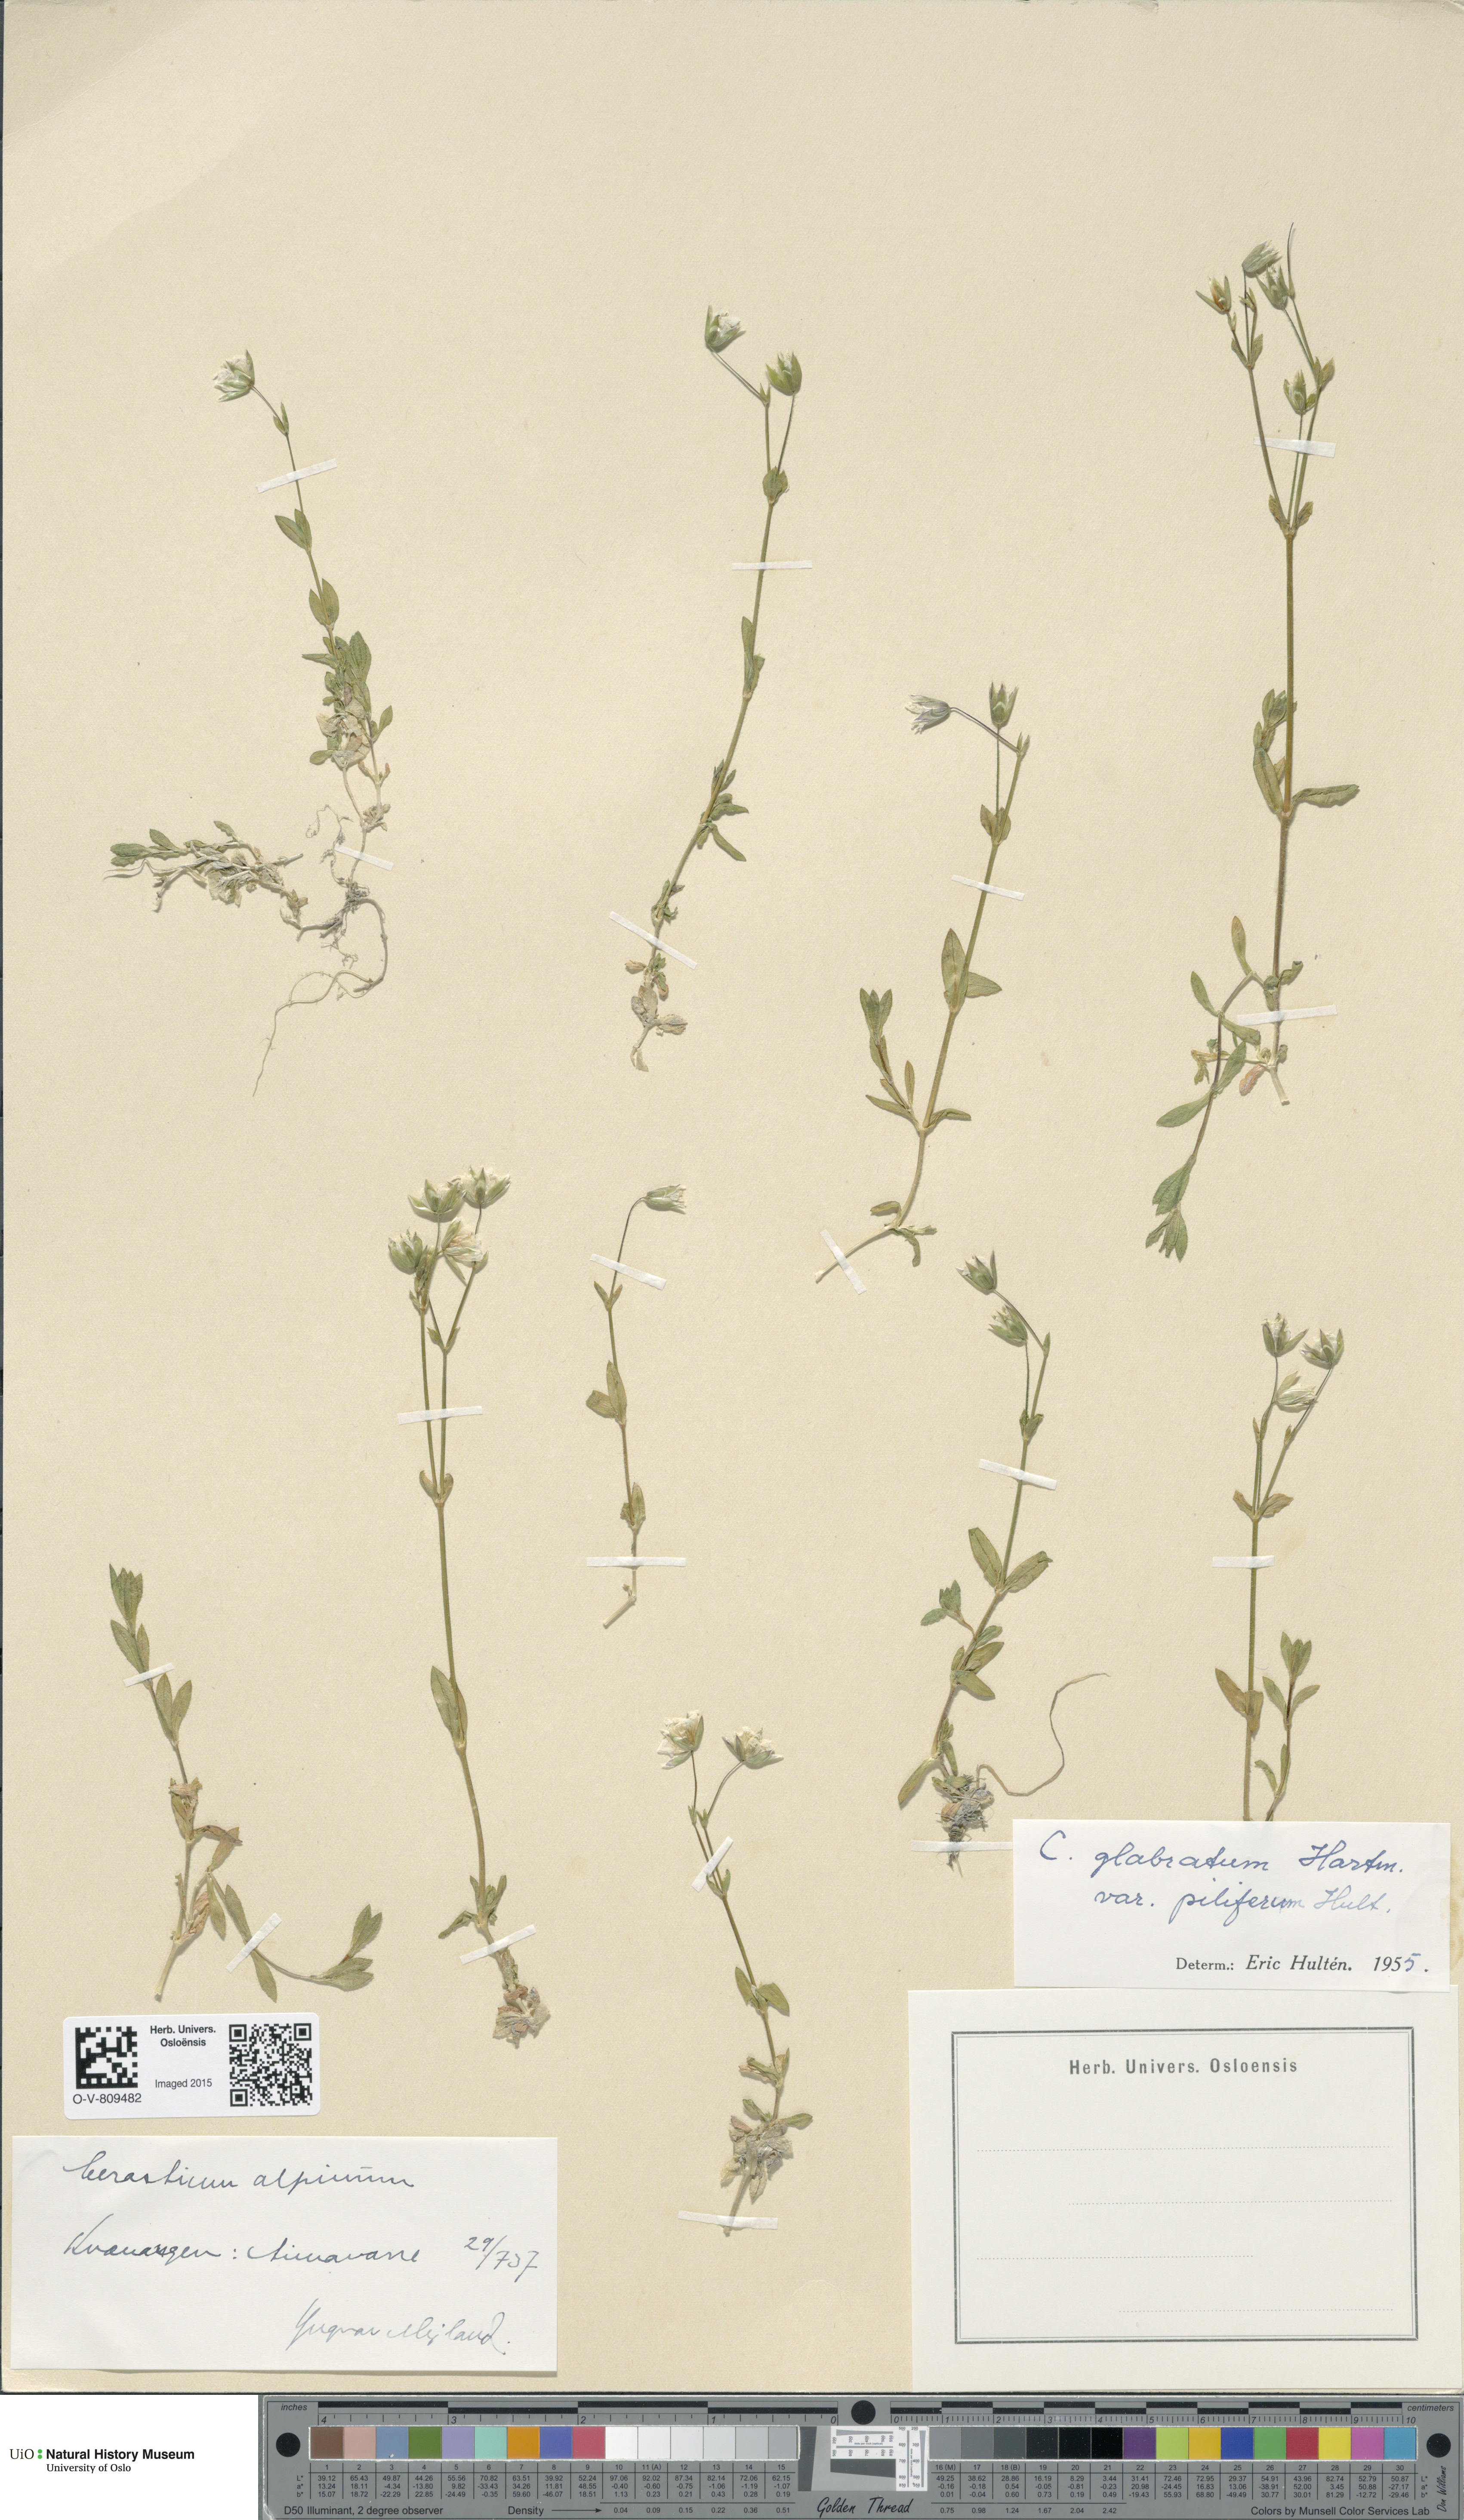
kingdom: Plantae
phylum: Tracheophyta
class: Magnoliopsida
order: Caryophyllales
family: Caryophyllaceae
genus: Cerastium
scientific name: Cerastium alpinum
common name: Alpine mouse-ear
